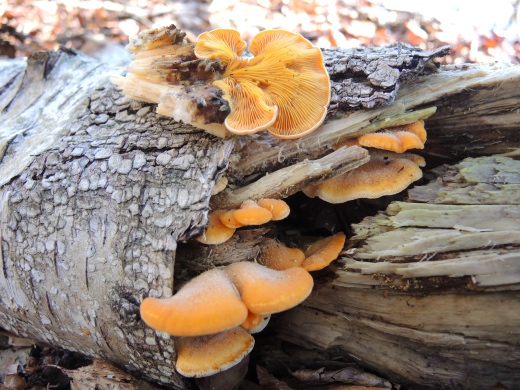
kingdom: Fungi
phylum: Basidiomycota
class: Agaricomycetes
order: Agaricales
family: Phyllotopsidaceae
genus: Phyllotopsis
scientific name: Phyllotopsis nidulans
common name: okkerblad
